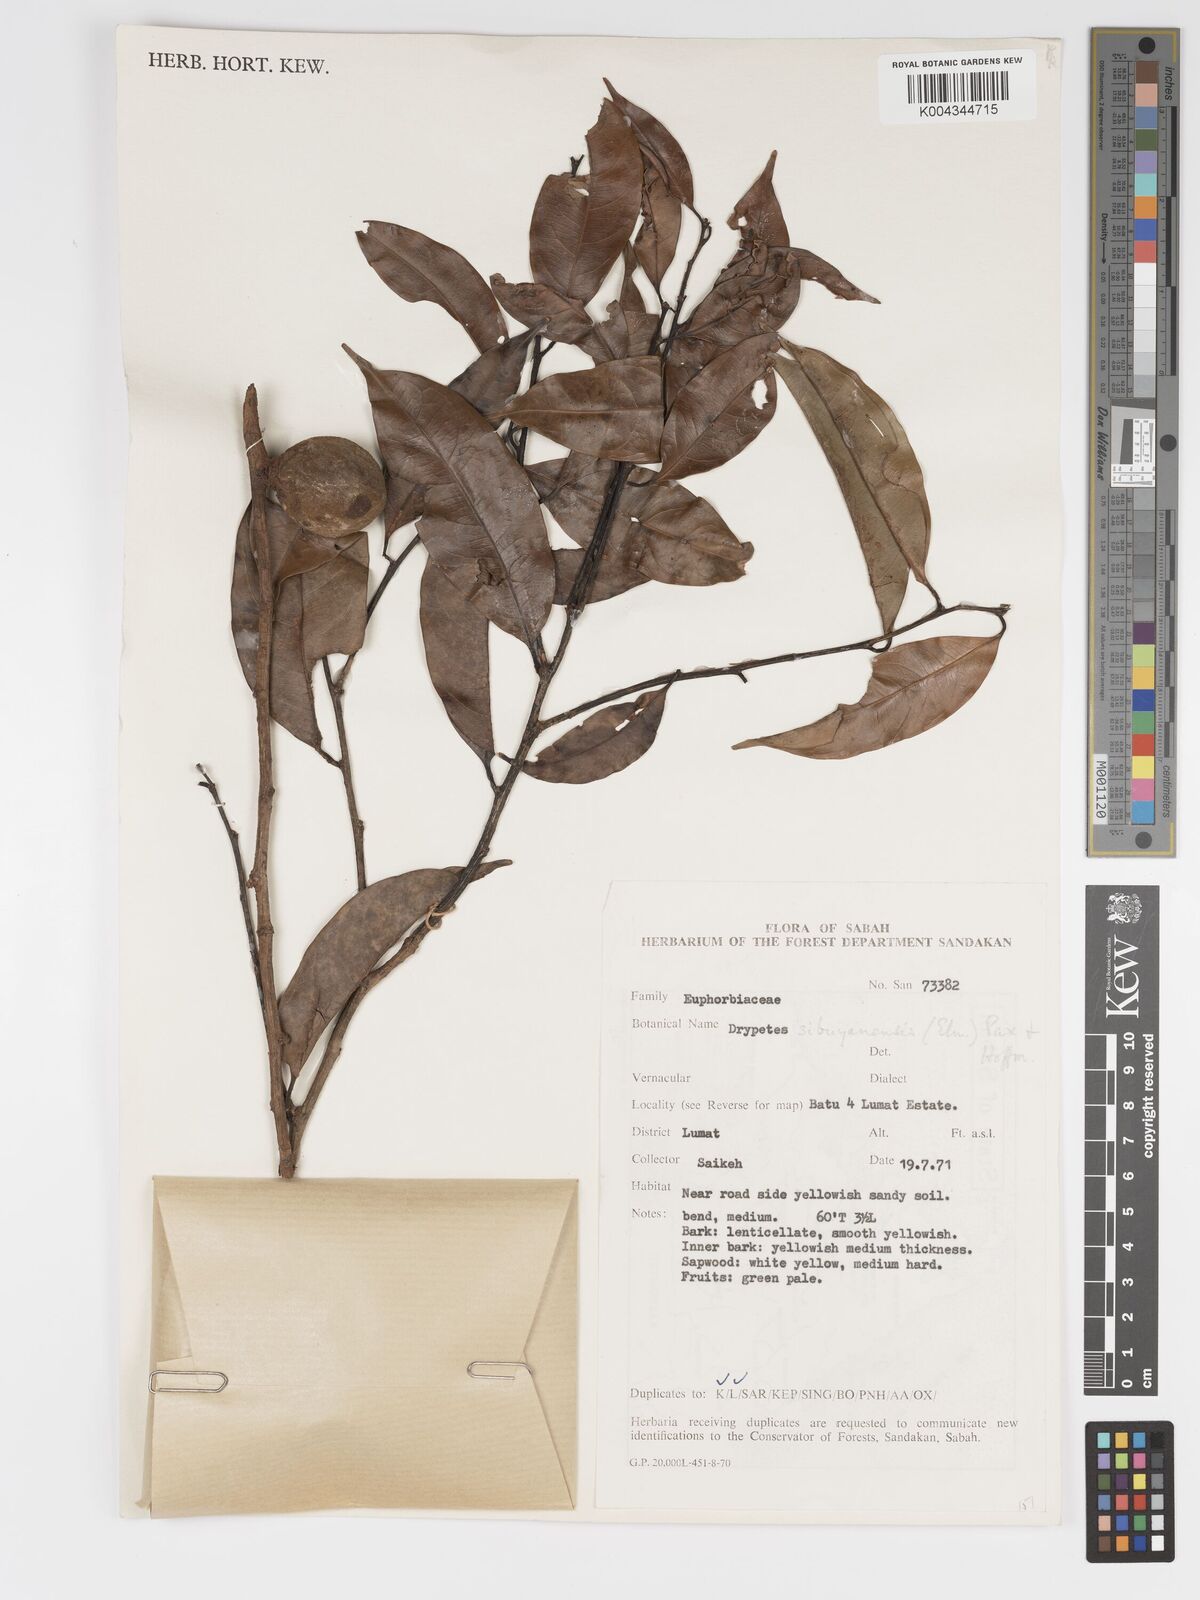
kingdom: Plantae
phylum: Tracheophyta
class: Magnoliopsida
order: Malpighiales
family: Putranjivaceae
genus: Drypetes
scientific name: Drypetes sibuyanensis
